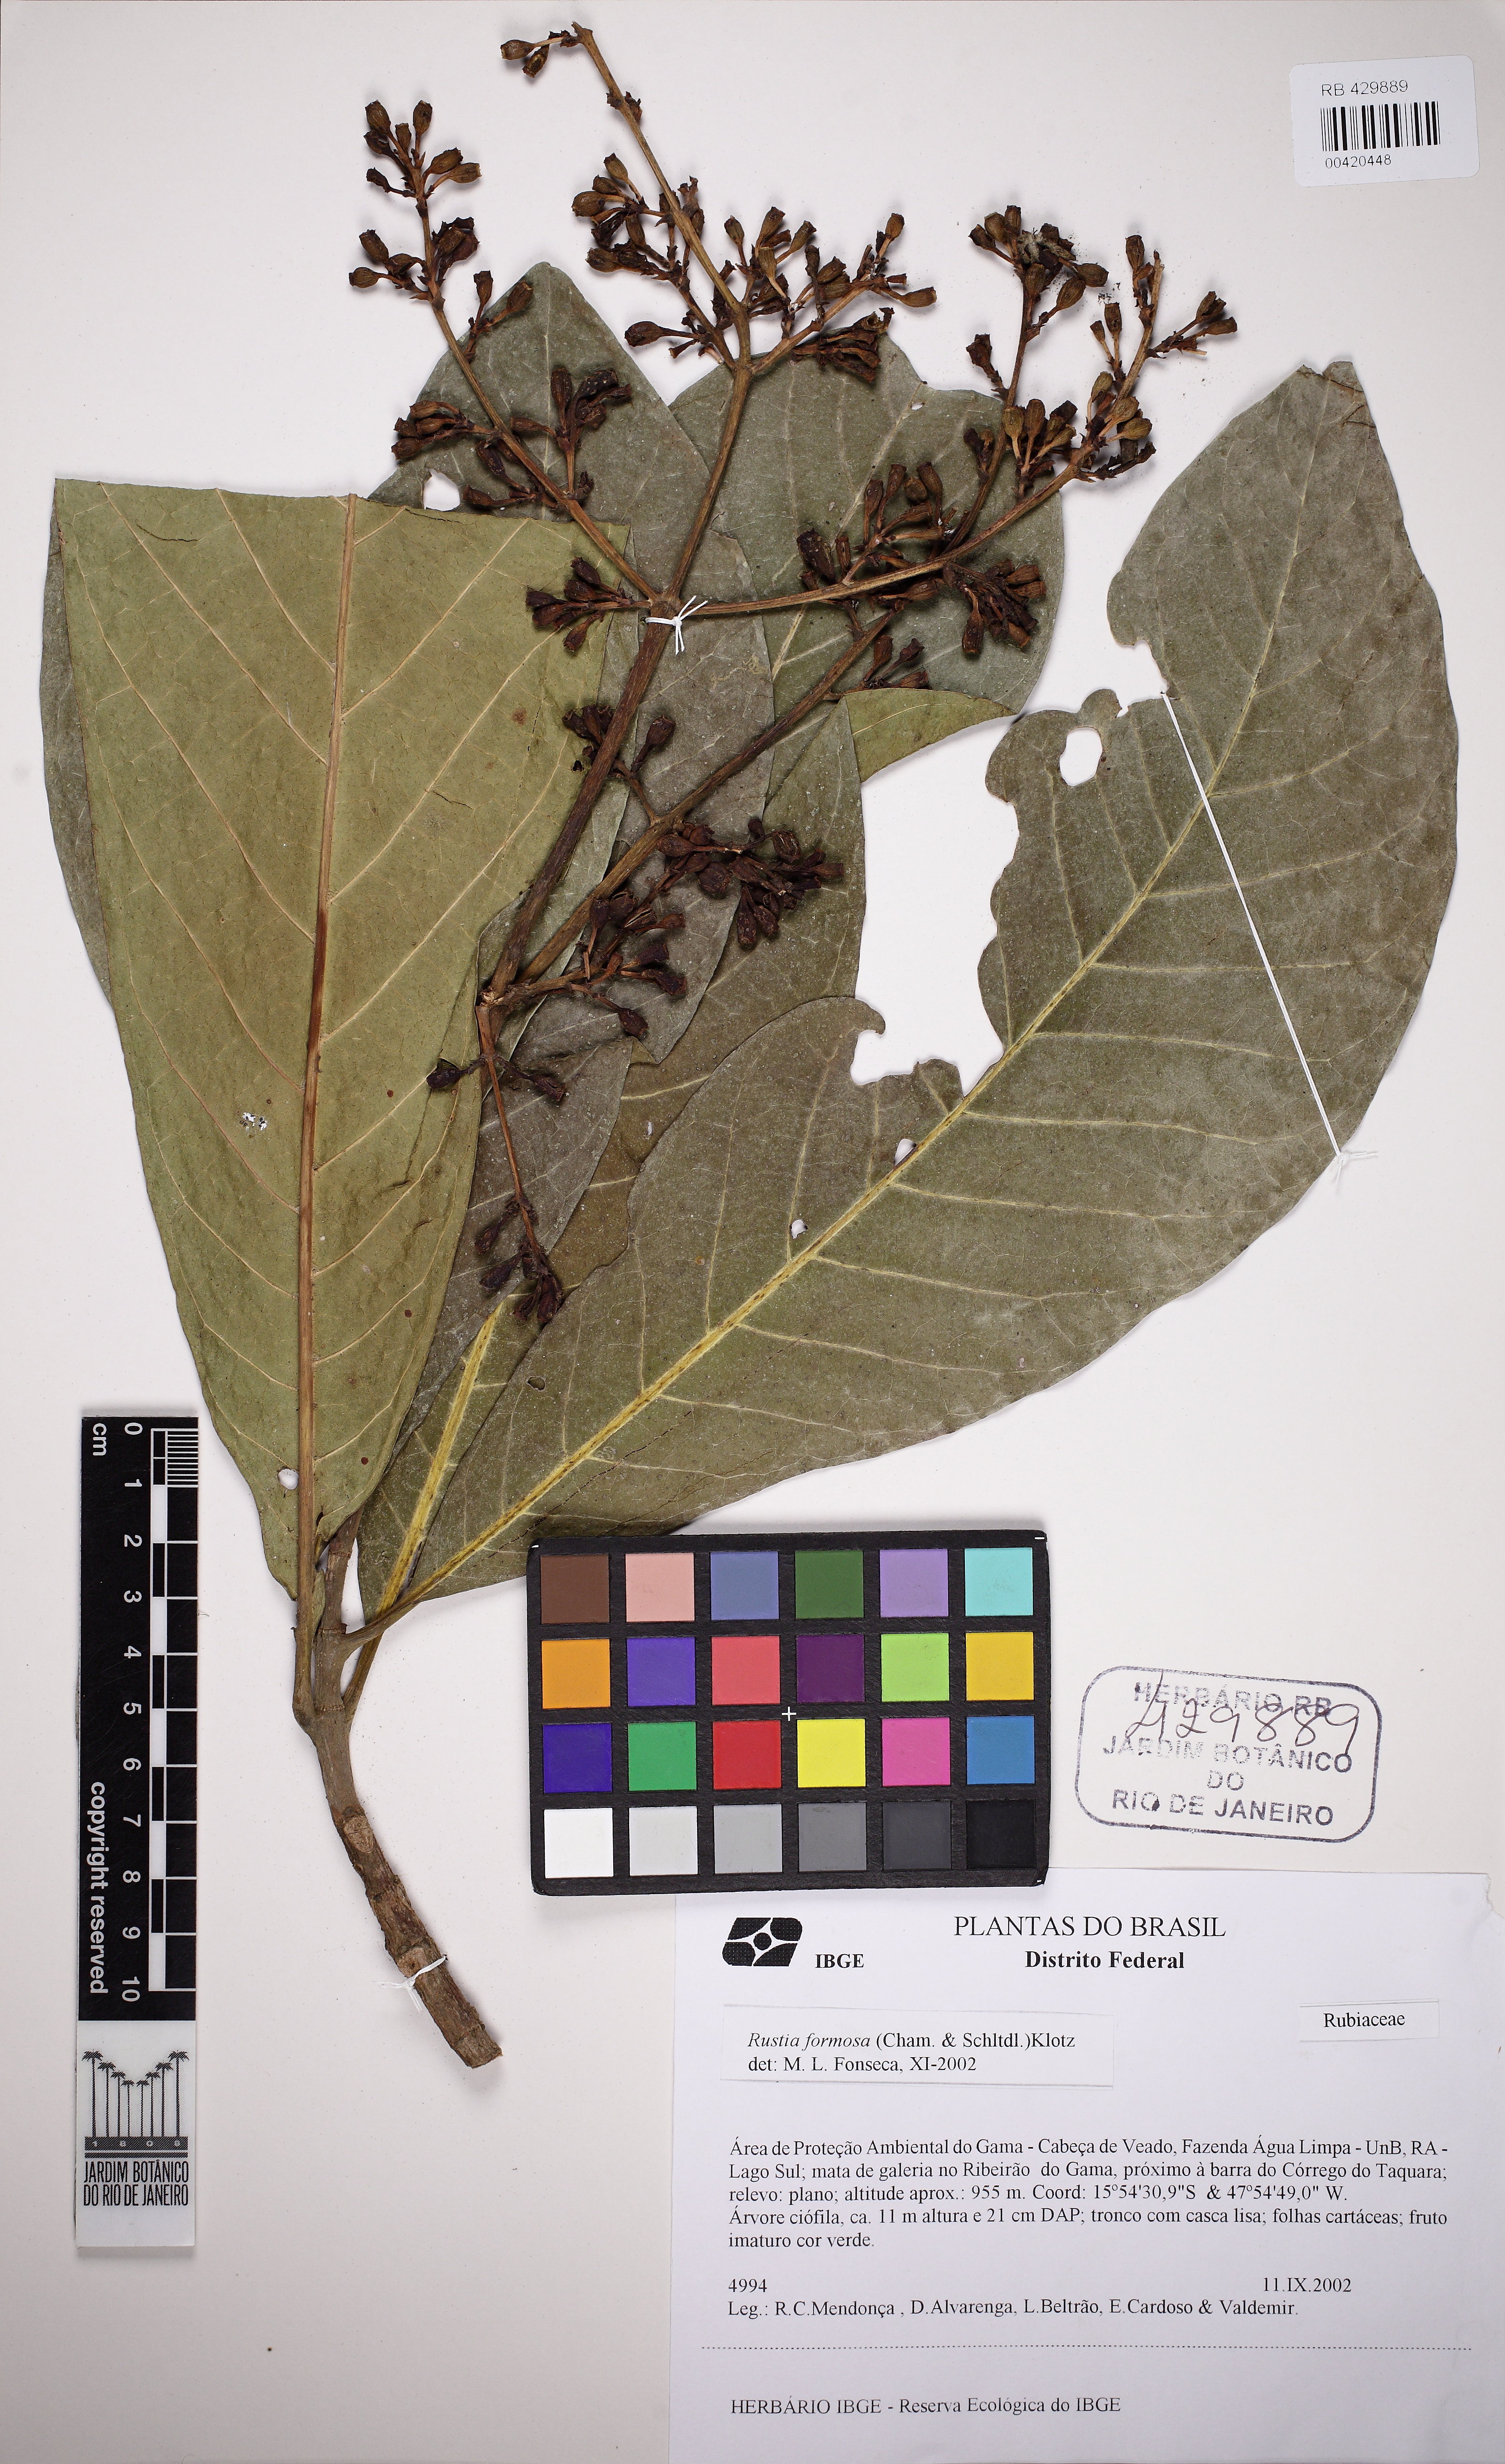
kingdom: Plantae
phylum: Tracheophyta
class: Magnoliopsida
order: Gentianales
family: Rubiaceae
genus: Rustia
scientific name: Rustia formosa
